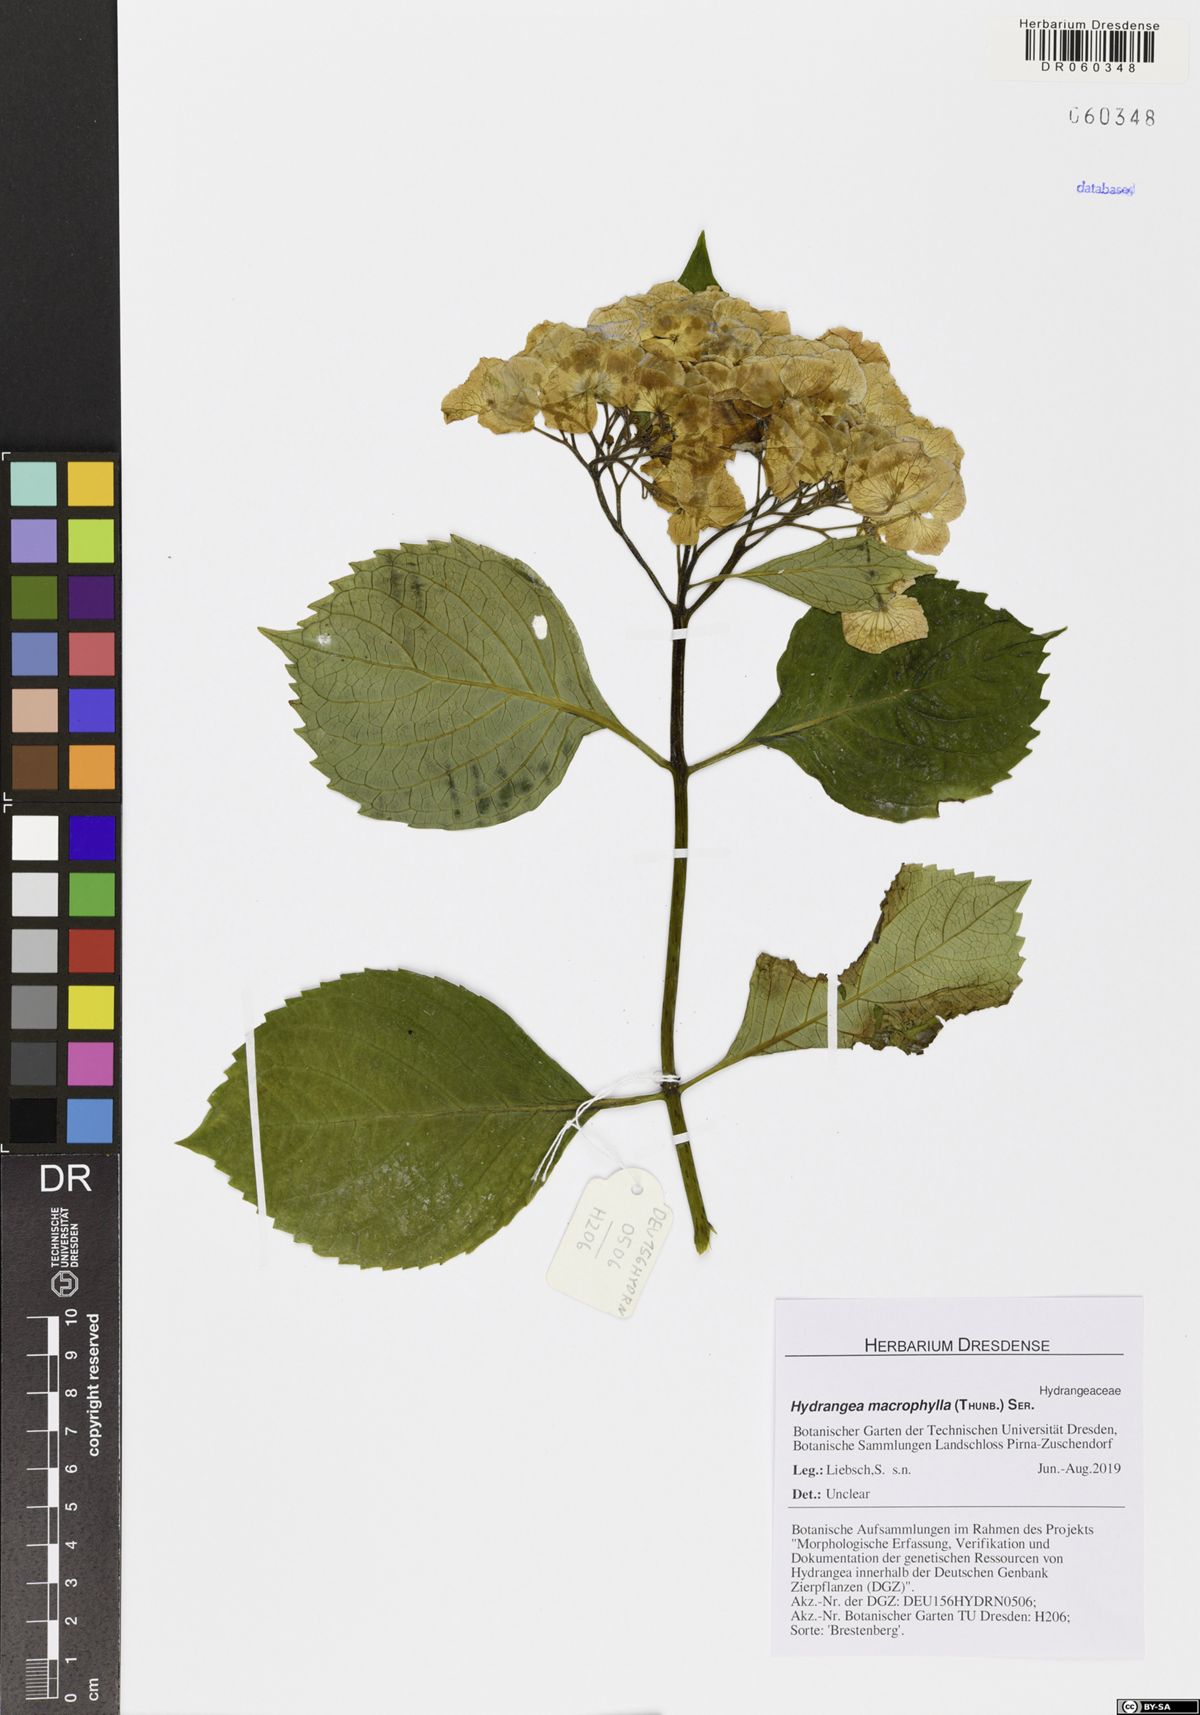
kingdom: Plantae
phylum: Tracheophyta
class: Magnoliopsida
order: Cornales
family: Hydrangeaceae
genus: Hydrangea
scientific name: Hydrangea macrophylla
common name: Hydrangea
